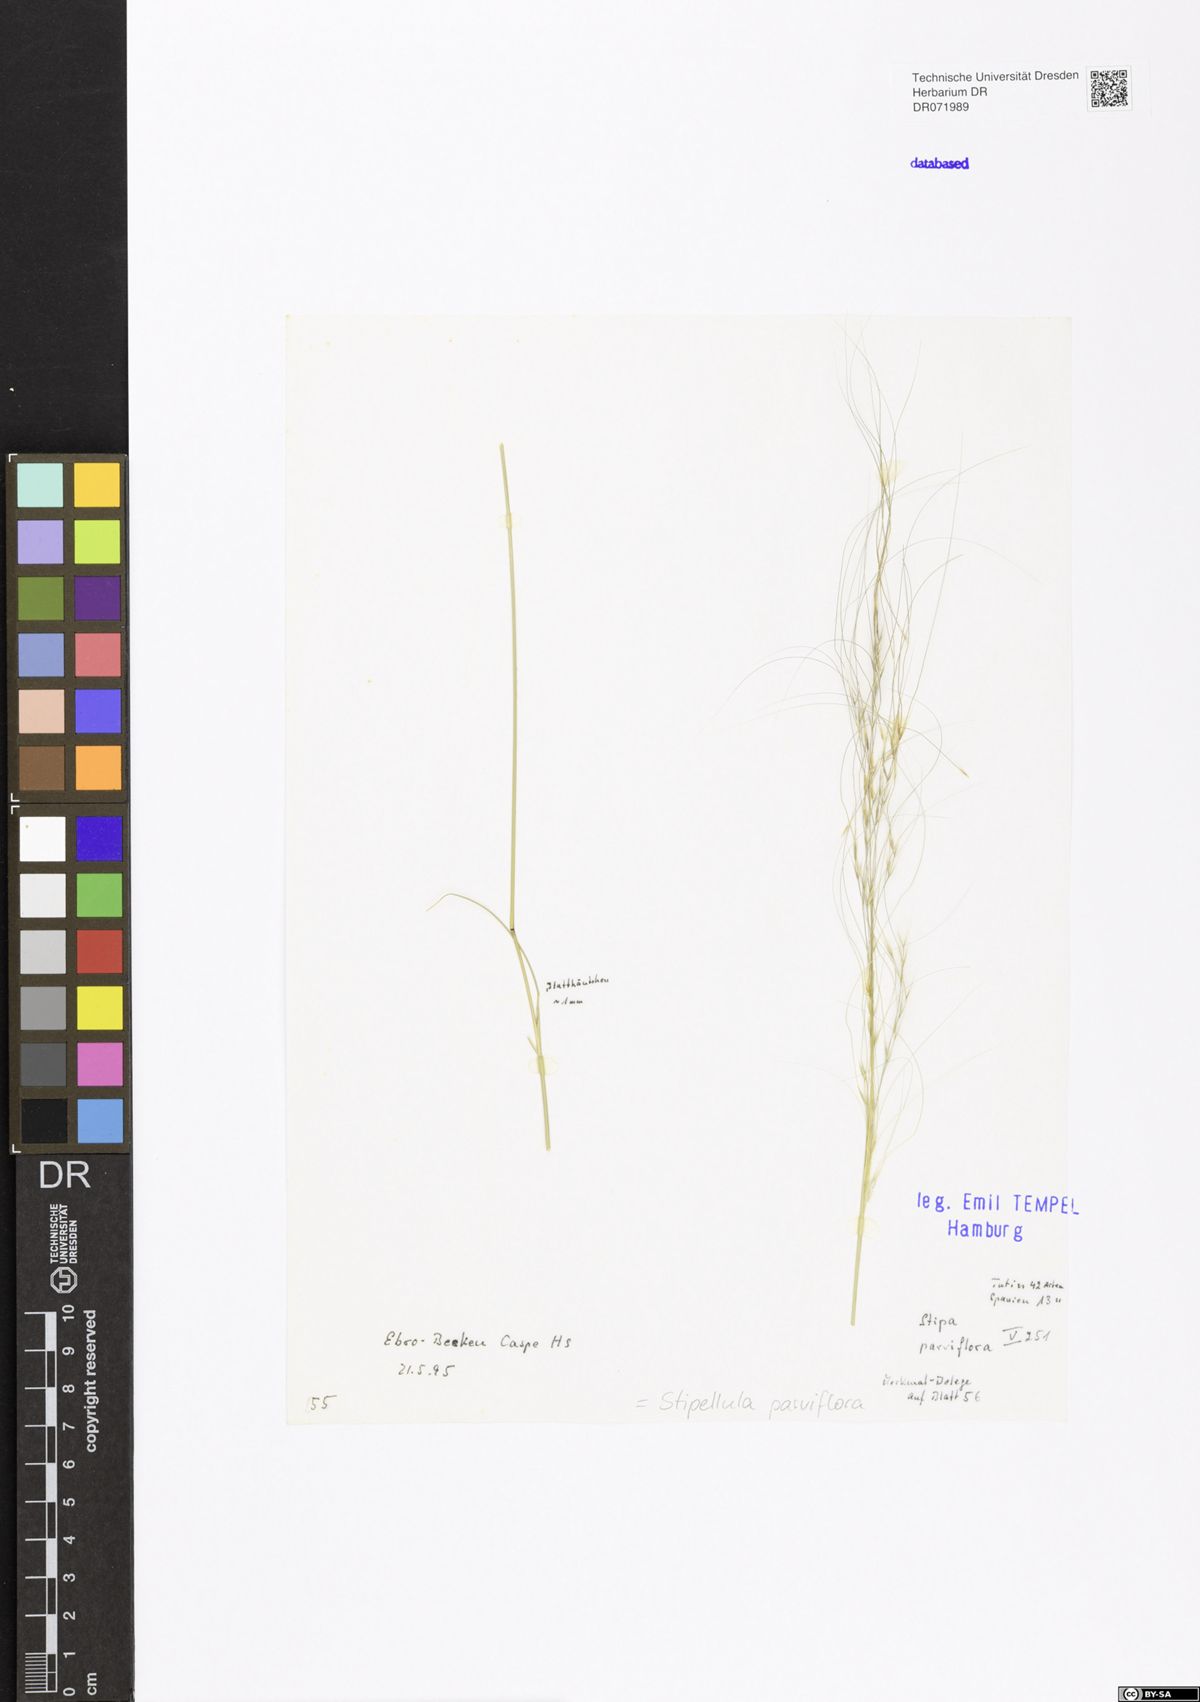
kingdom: Plantae
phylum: Tracheophyta
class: Liliopsida
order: Poales
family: Poaceae
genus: Achnatherum
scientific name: Achnatherum parviflorum
